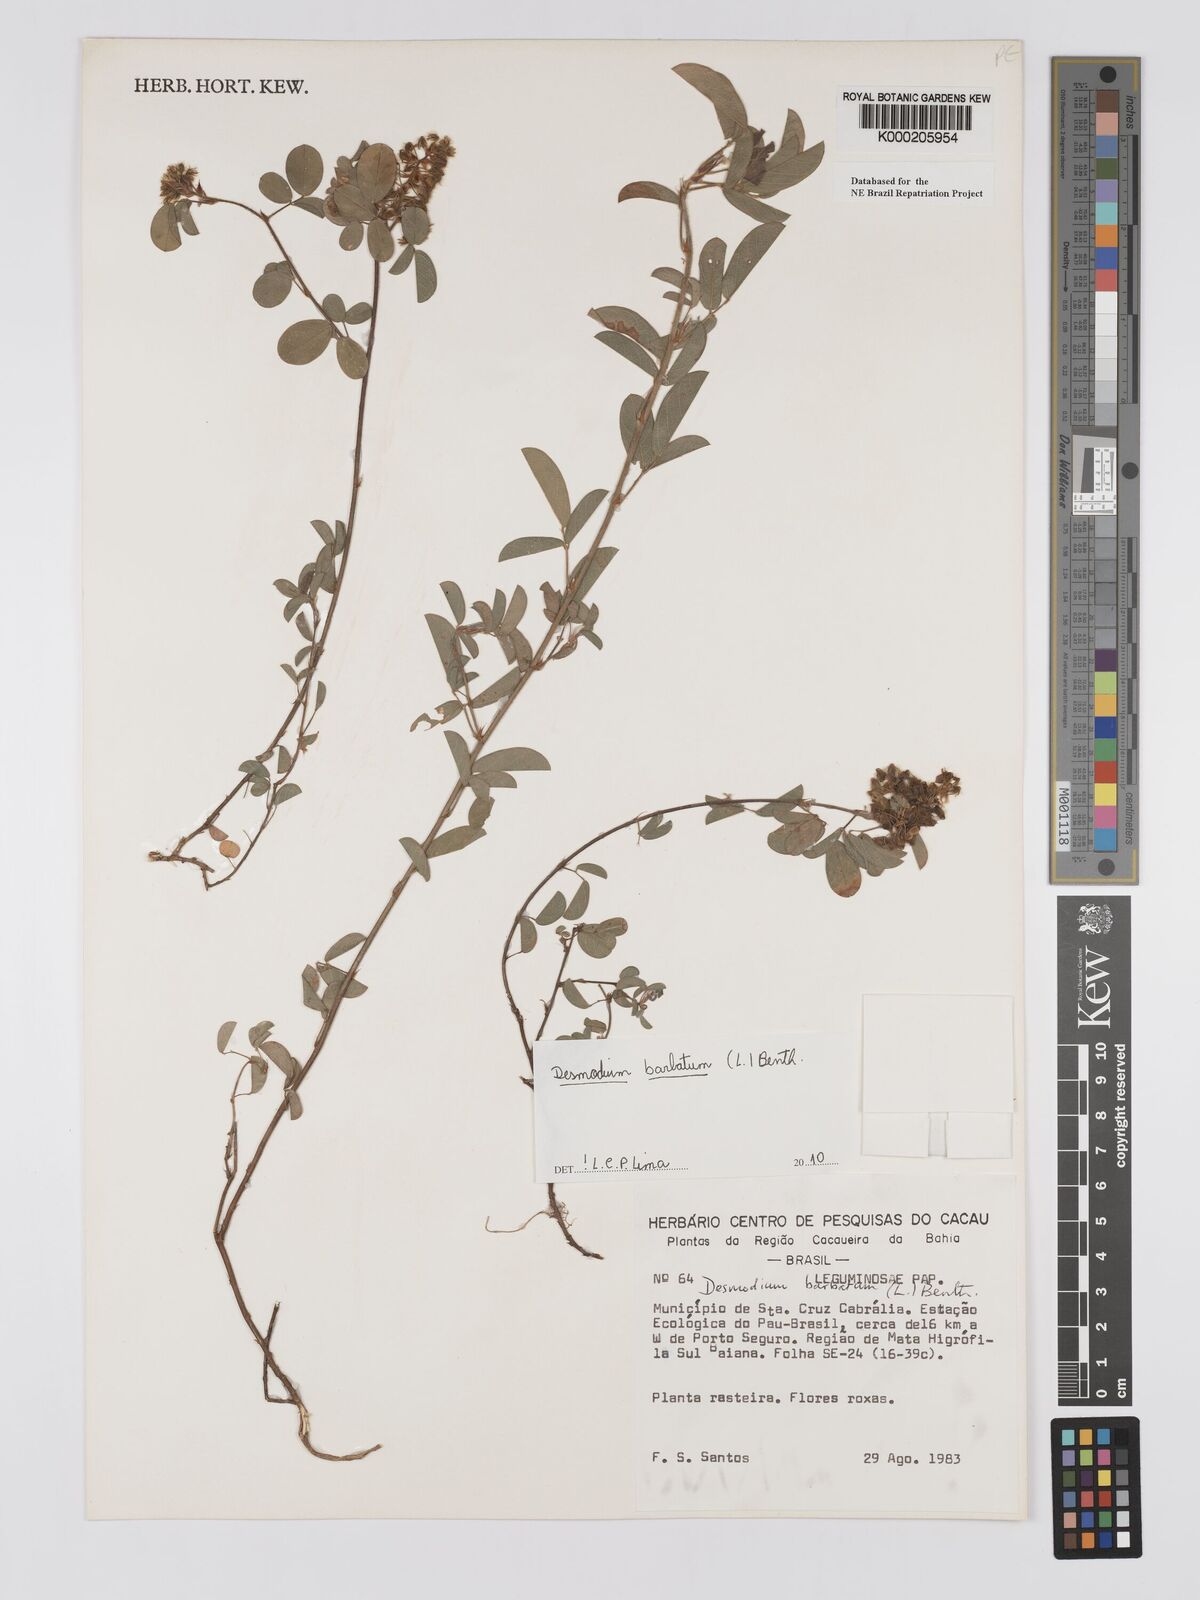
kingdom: Plantae
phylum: Tracheophyta
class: Magnoliopsida
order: Fabales
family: Fabaceae
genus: Grona
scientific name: Grona barbata
